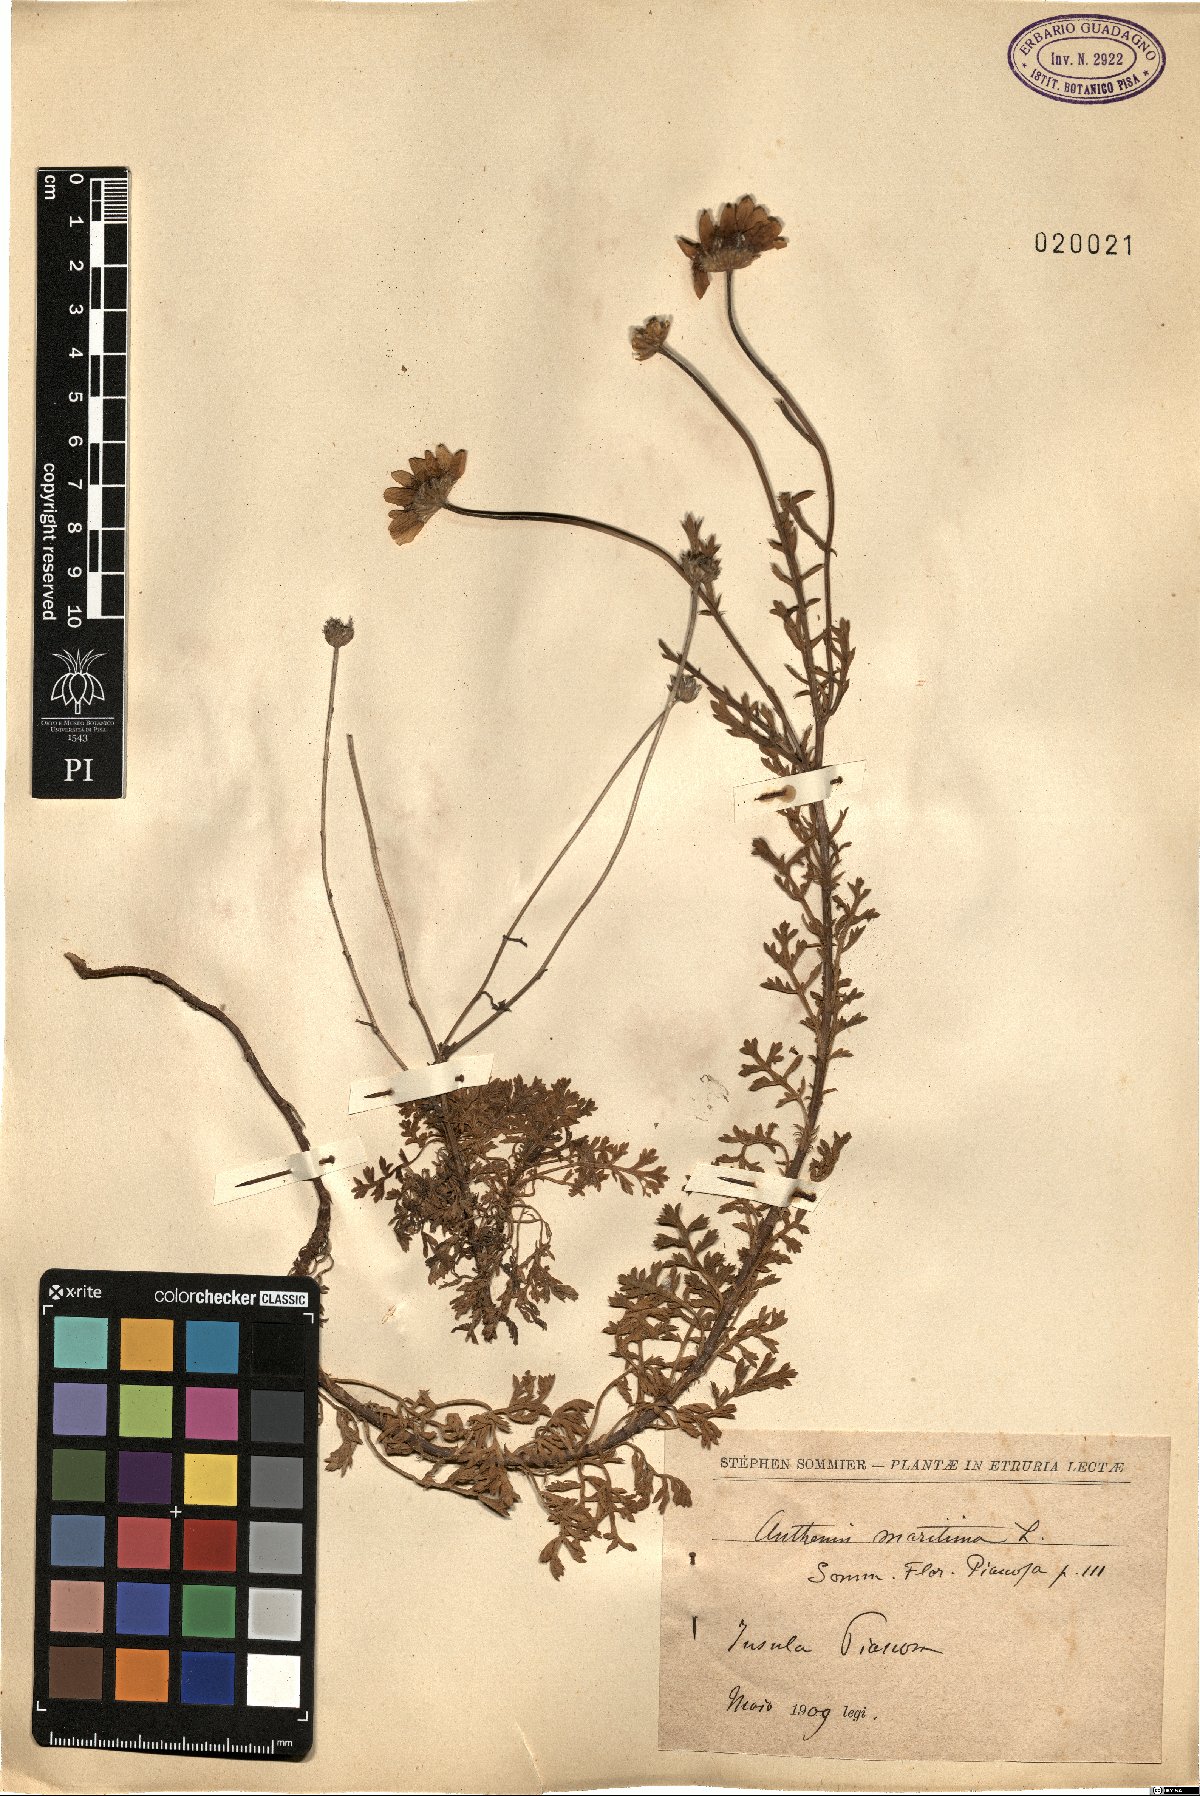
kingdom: Plantae
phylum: Tracheophyta
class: Magnoliopsida
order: Asterales
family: Asteraceae
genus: Anthemis
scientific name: Anthemis maritima
